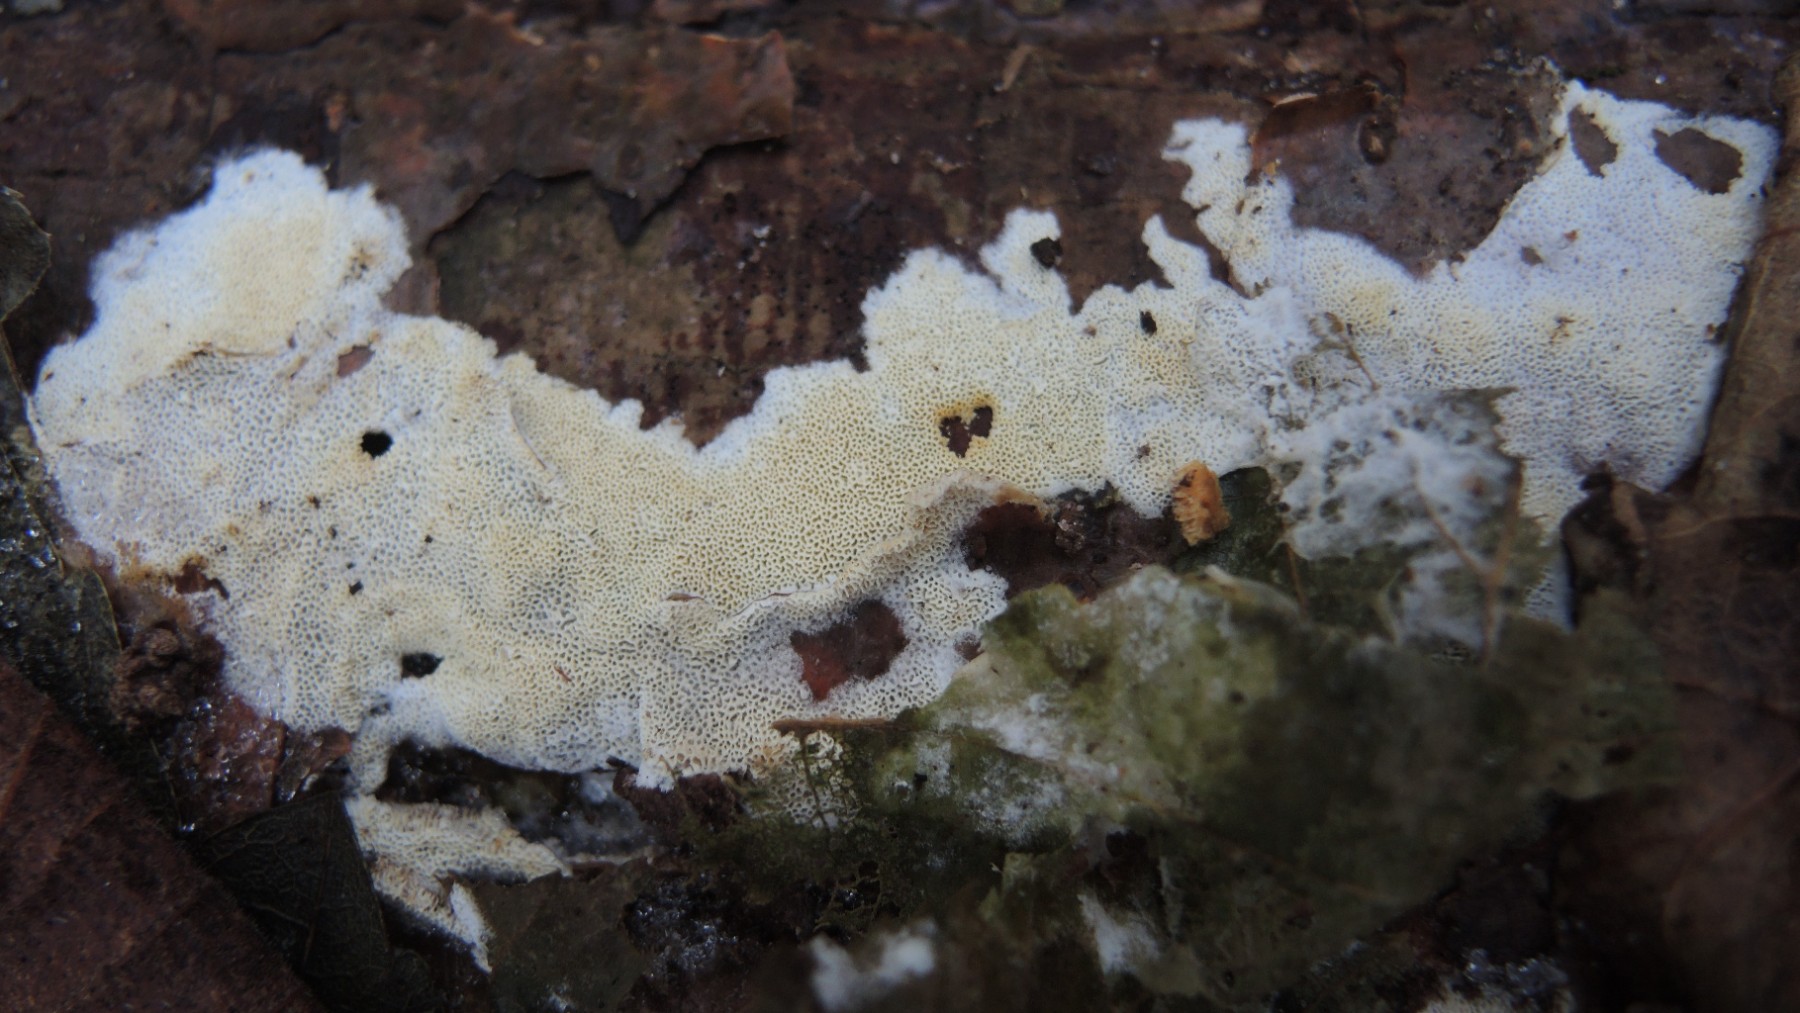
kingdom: Fungi
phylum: Basidiomycota
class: Agaricomycetes
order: Hymenochaetales
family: Schizoporaceae
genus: Xylodon
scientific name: Xylodon
